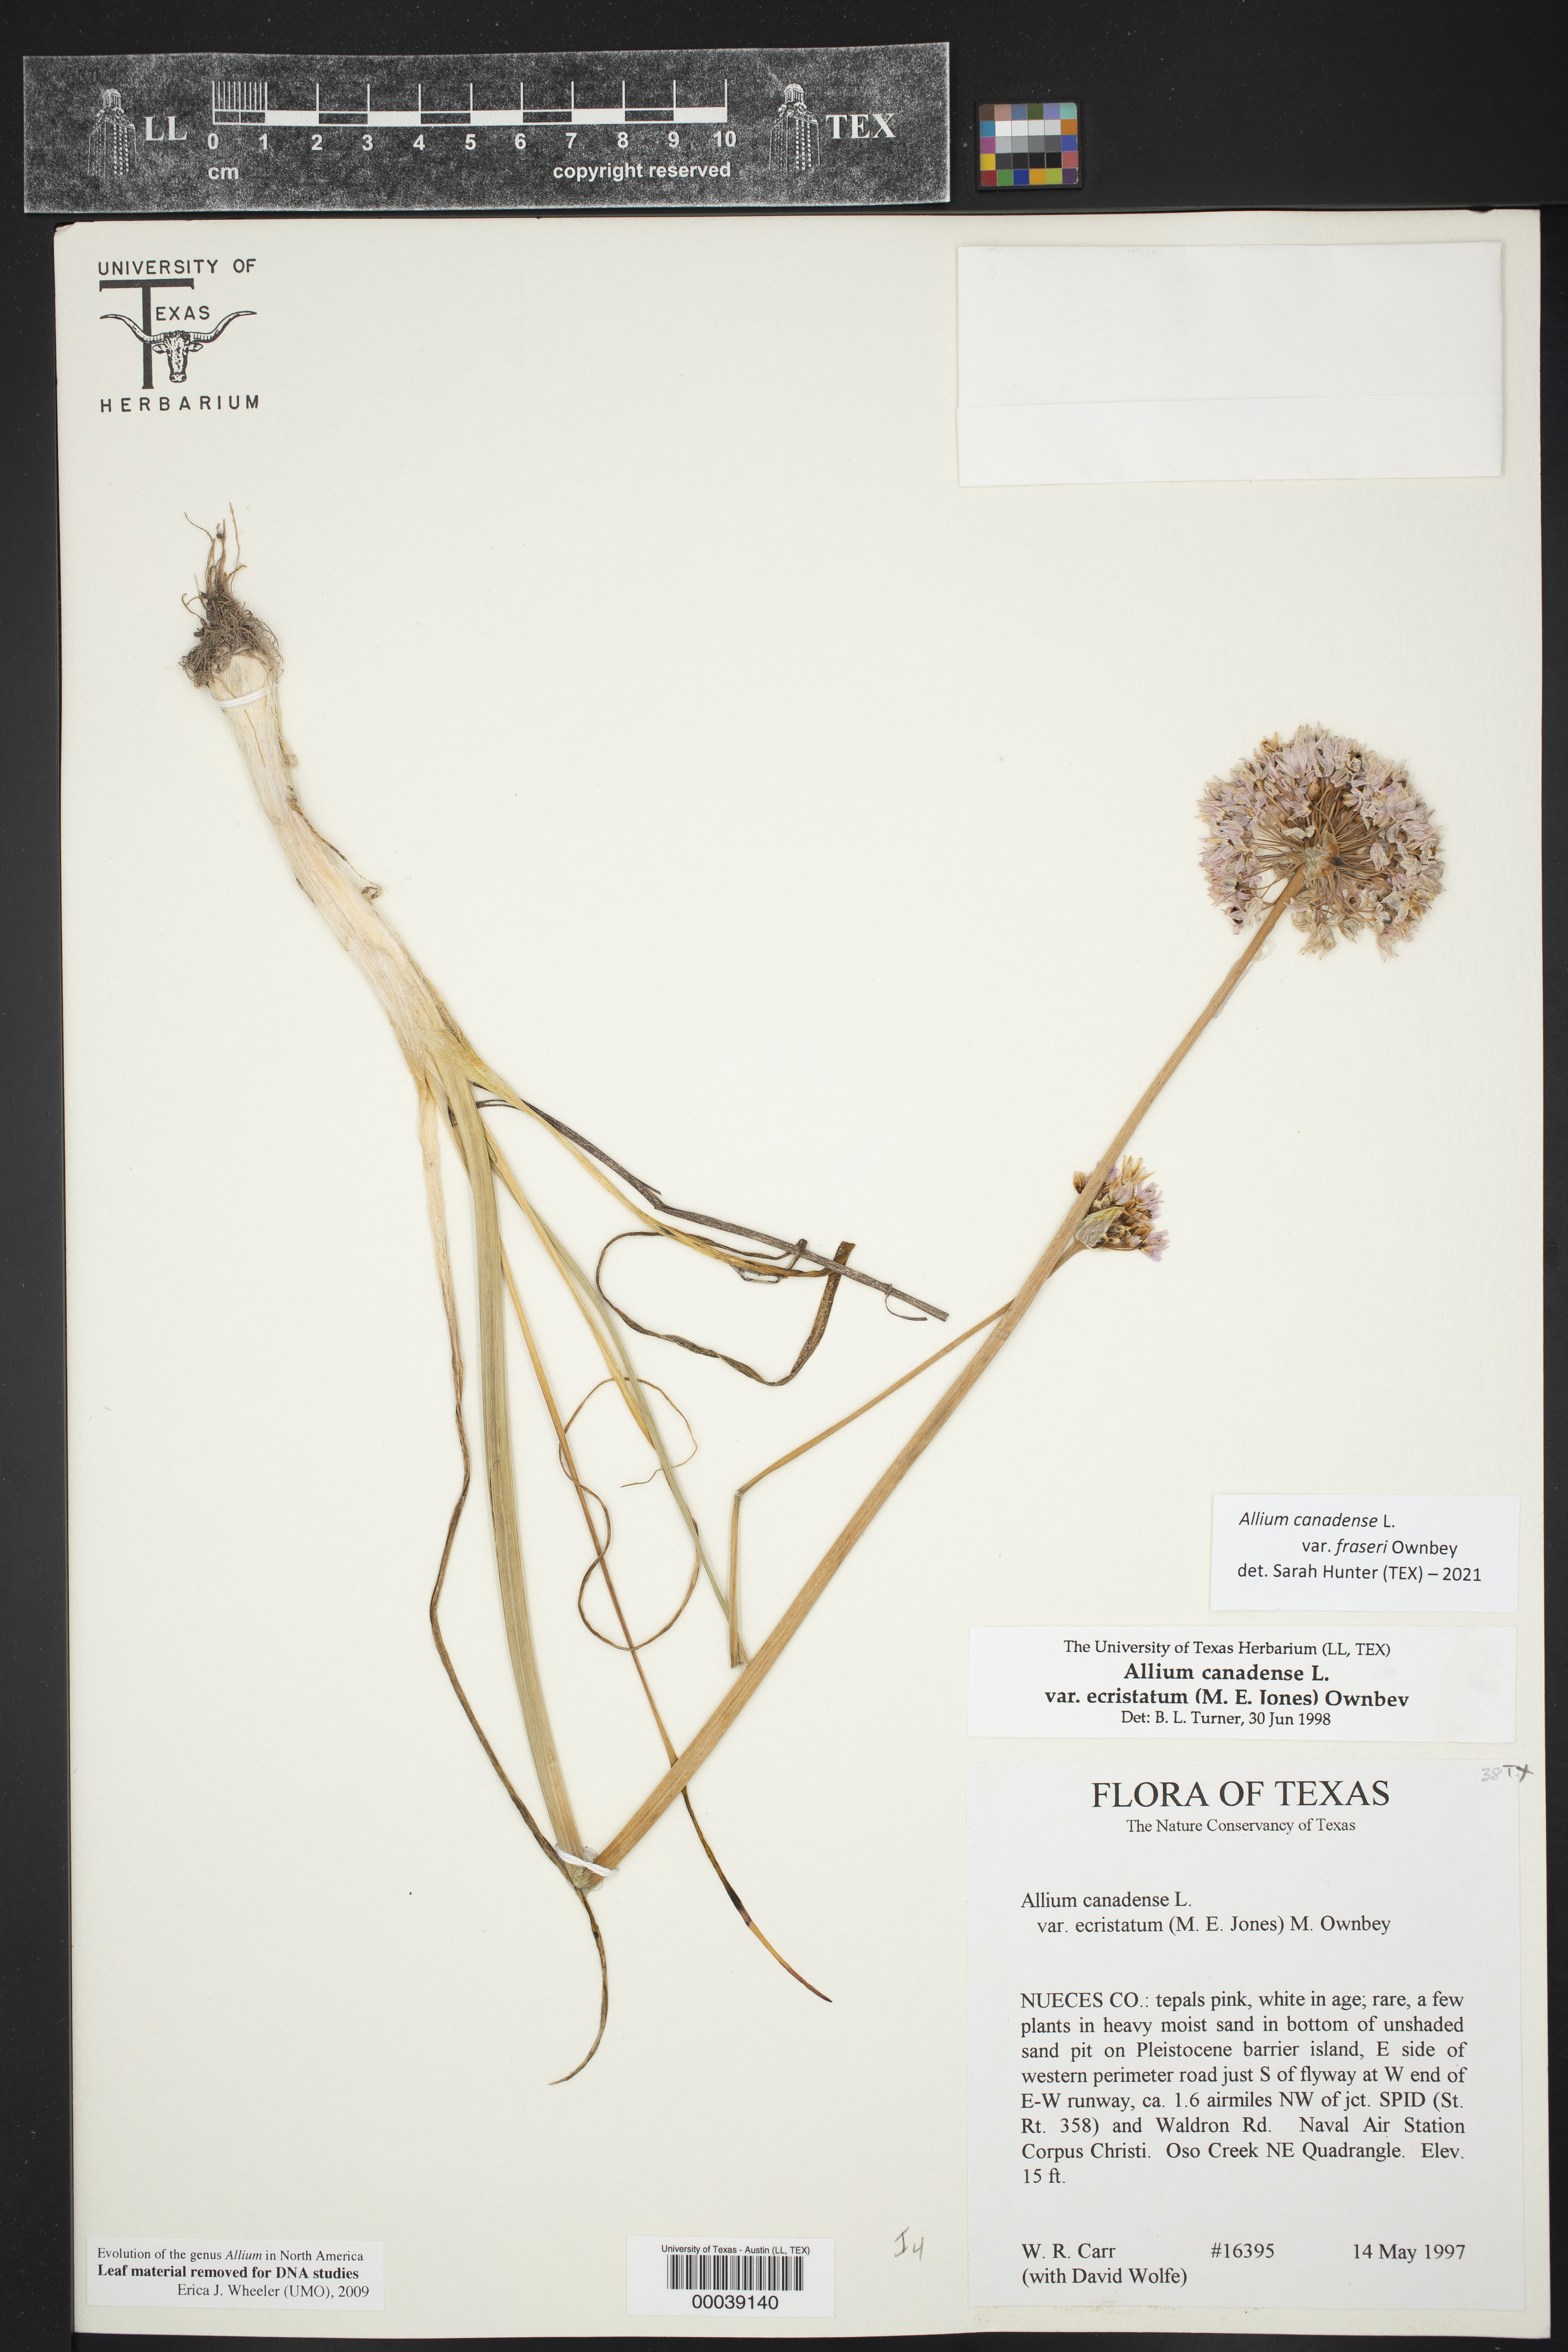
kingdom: Plantae
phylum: Tracheophyta
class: Liliopsida
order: Asparagales
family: Amaryllidaceae
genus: Allium
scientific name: Allium fraseri
